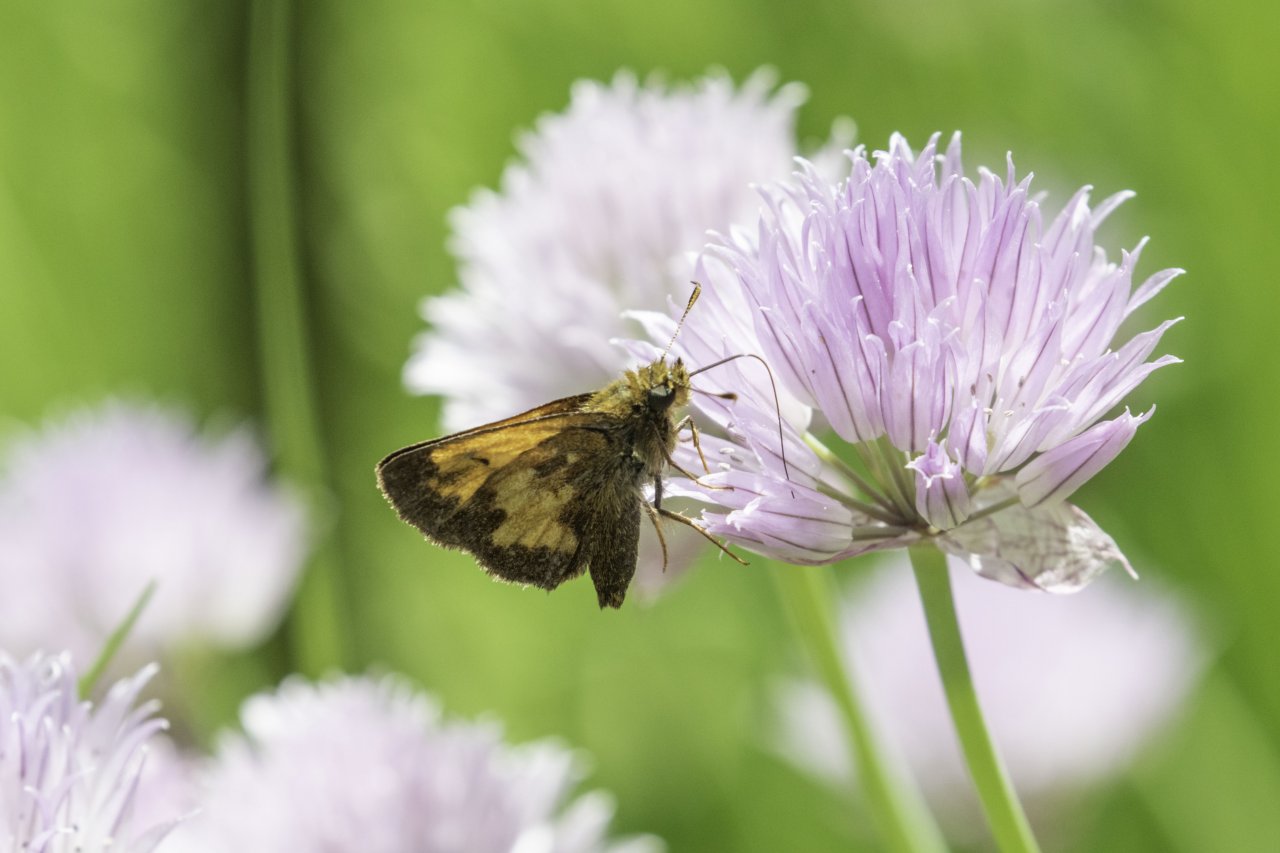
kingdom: Animalia
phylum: Arthropoda
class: Insecta
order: Lepidoptera
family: Hesperiidae
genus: Polites
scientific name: Polites coras
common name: Peck's Skipper
